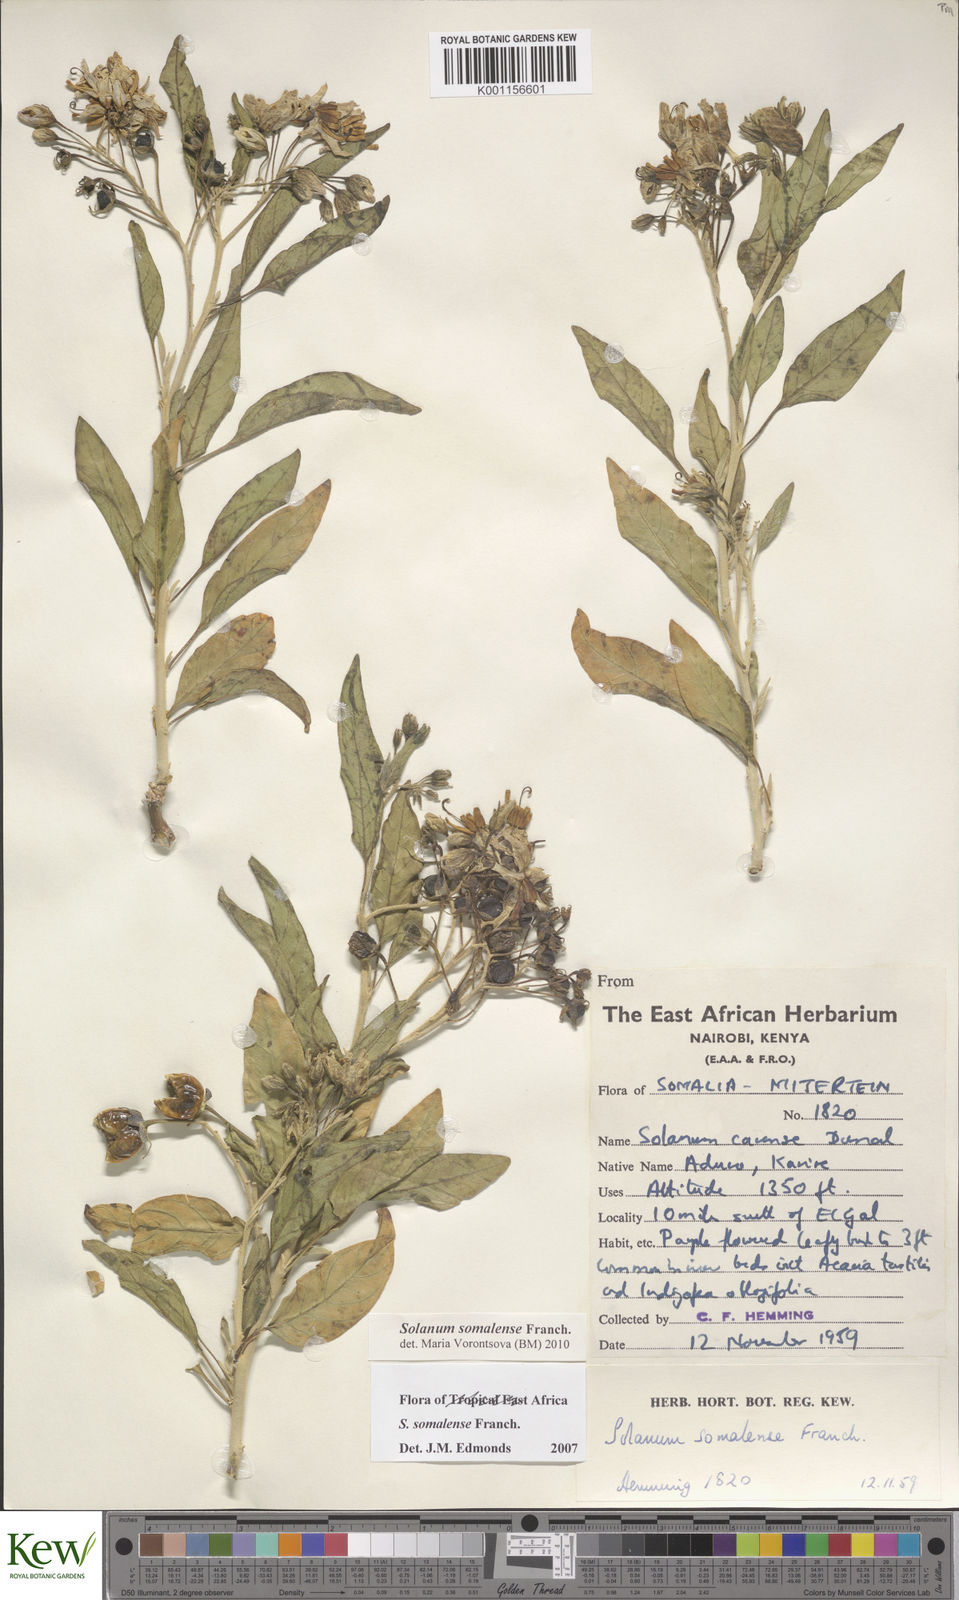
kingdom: Plantae
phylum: Tracheophyta
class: Magnoliopsida
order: Solanales
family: Solanaceae
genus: Solanum
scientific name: Solanum somalense
